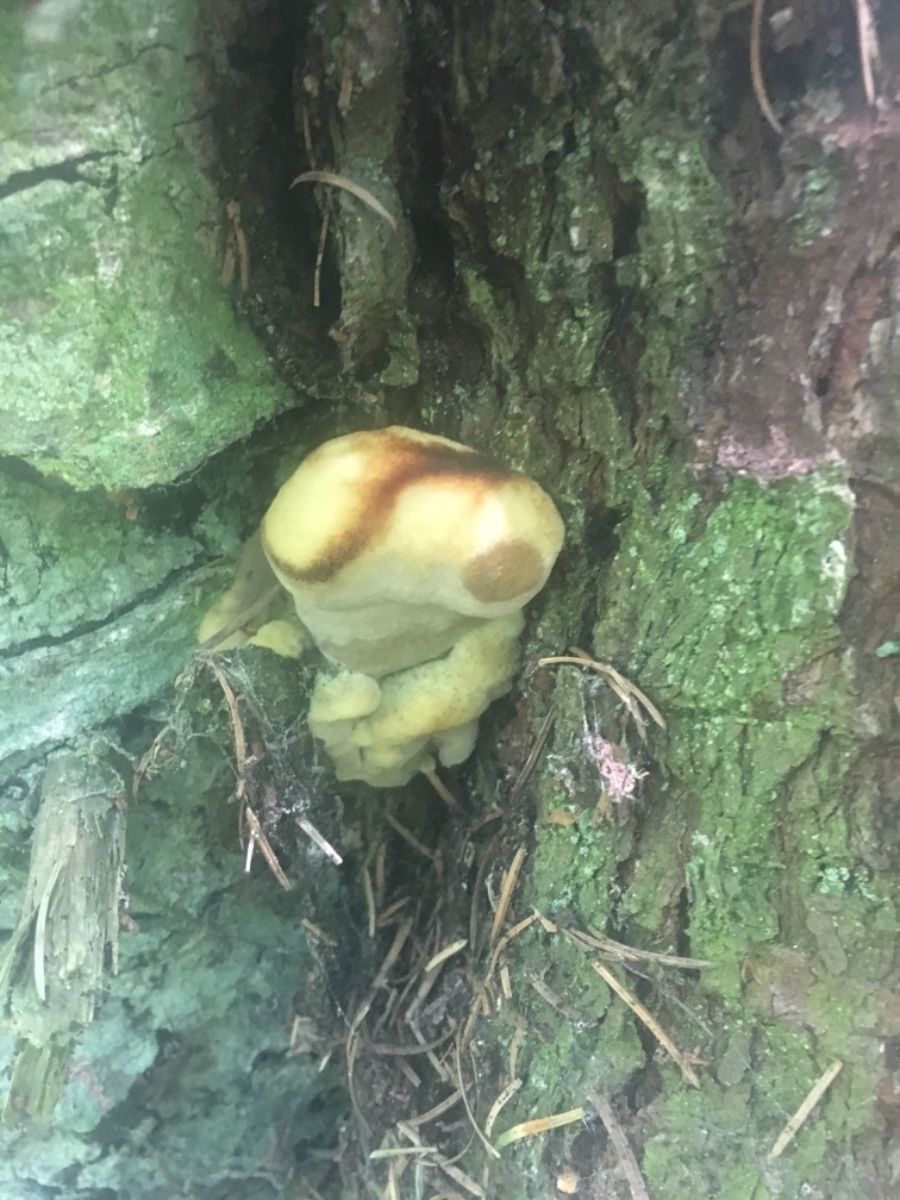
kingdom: Fungi
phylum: Basidiomycota
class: Agaricomycetes
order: Polyporales
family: Laetiporaceae
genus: Phaeolus
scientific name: Phaeolus schweinitzii
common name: brunporesvamp
